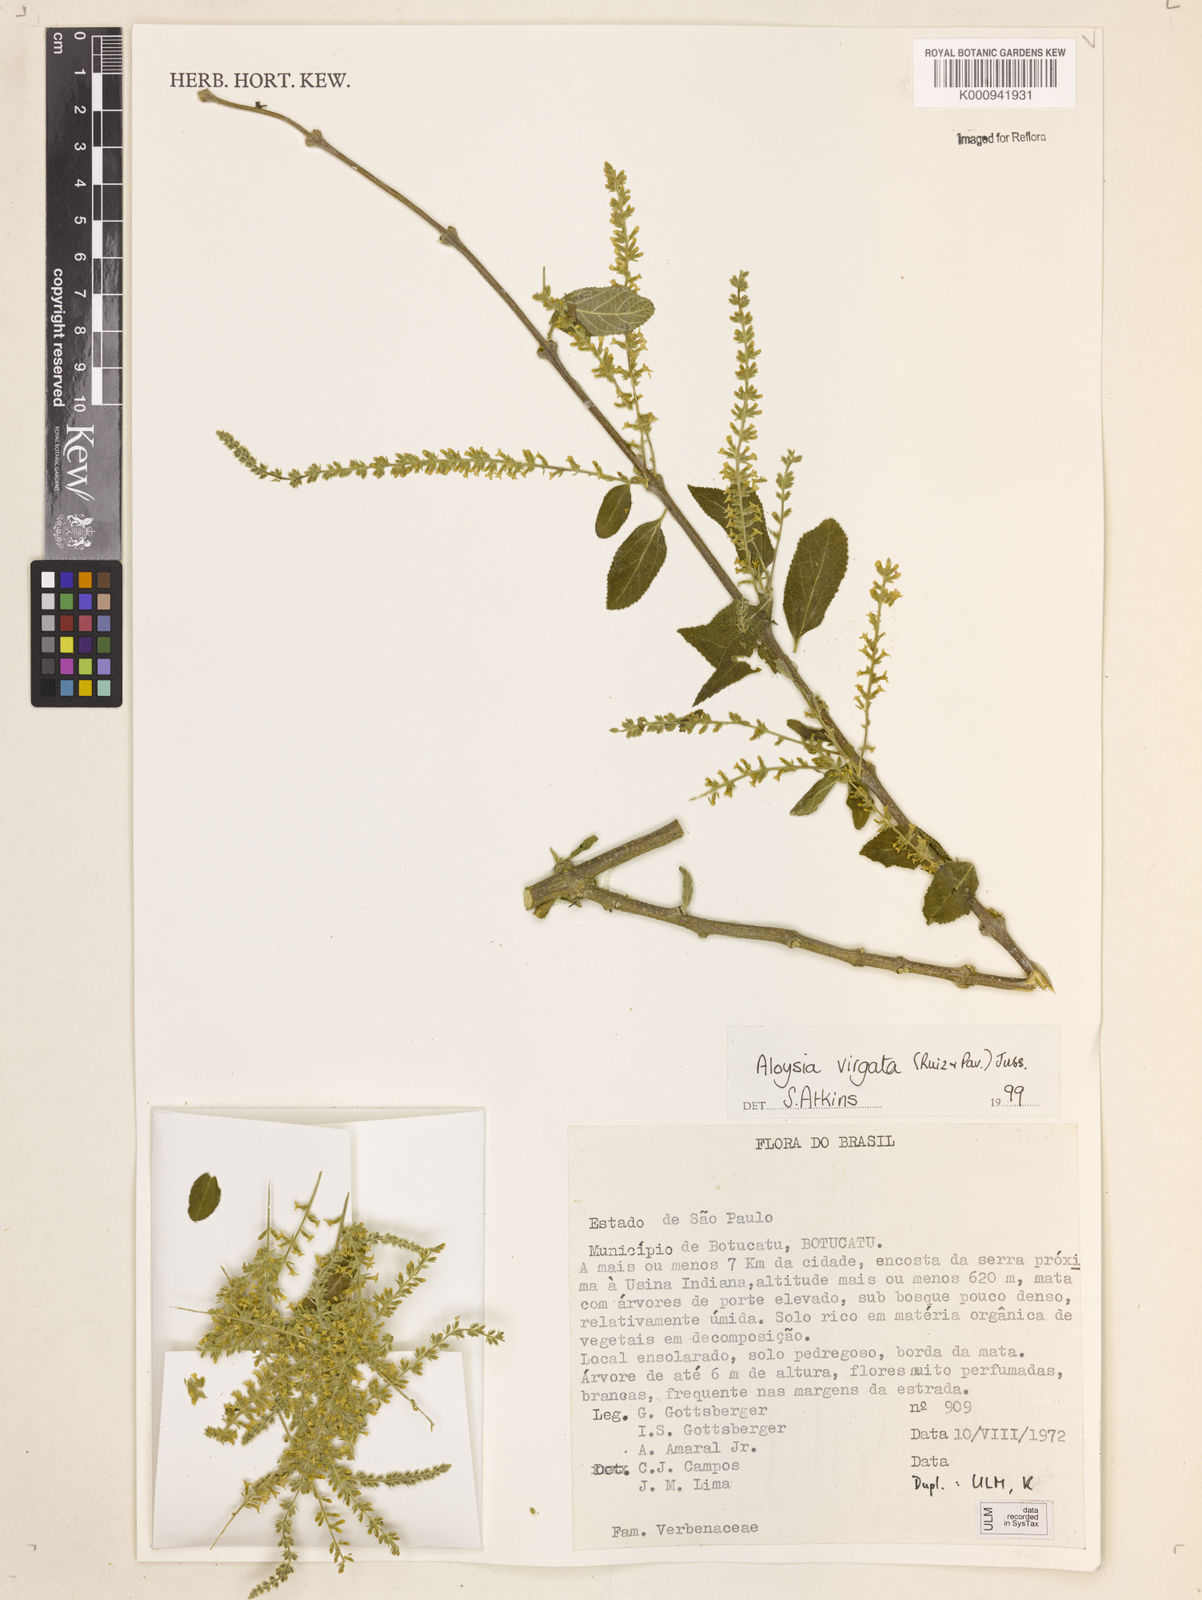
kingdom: Plantae
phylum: Tracheophyta
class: Magnoliopsida
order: Lamiales
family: Verbenaceae
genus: Aloysia
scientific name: Aloysia
